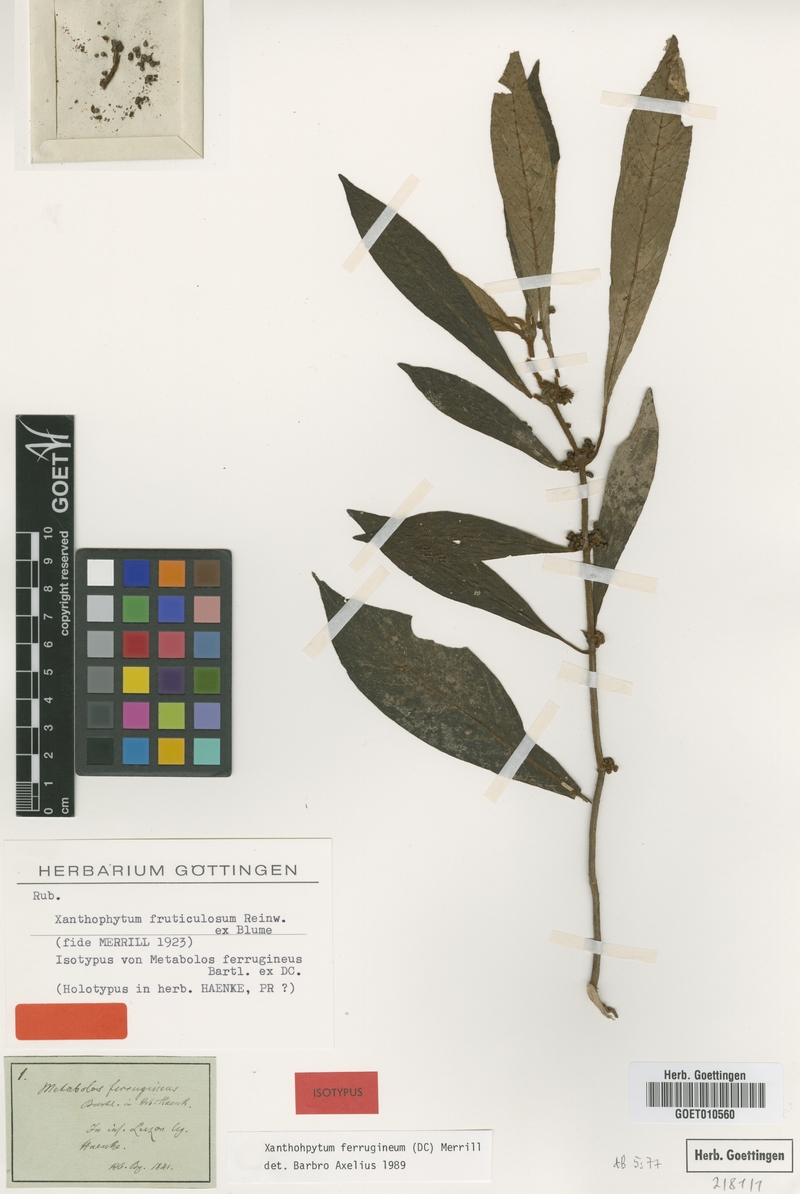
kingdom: Plantae
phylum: Tracheophyta
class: Magnoliopsida
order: Gentianales
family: Rubiaceae
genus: Xanthophytum
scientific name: Xanthophytum fruticulosum
